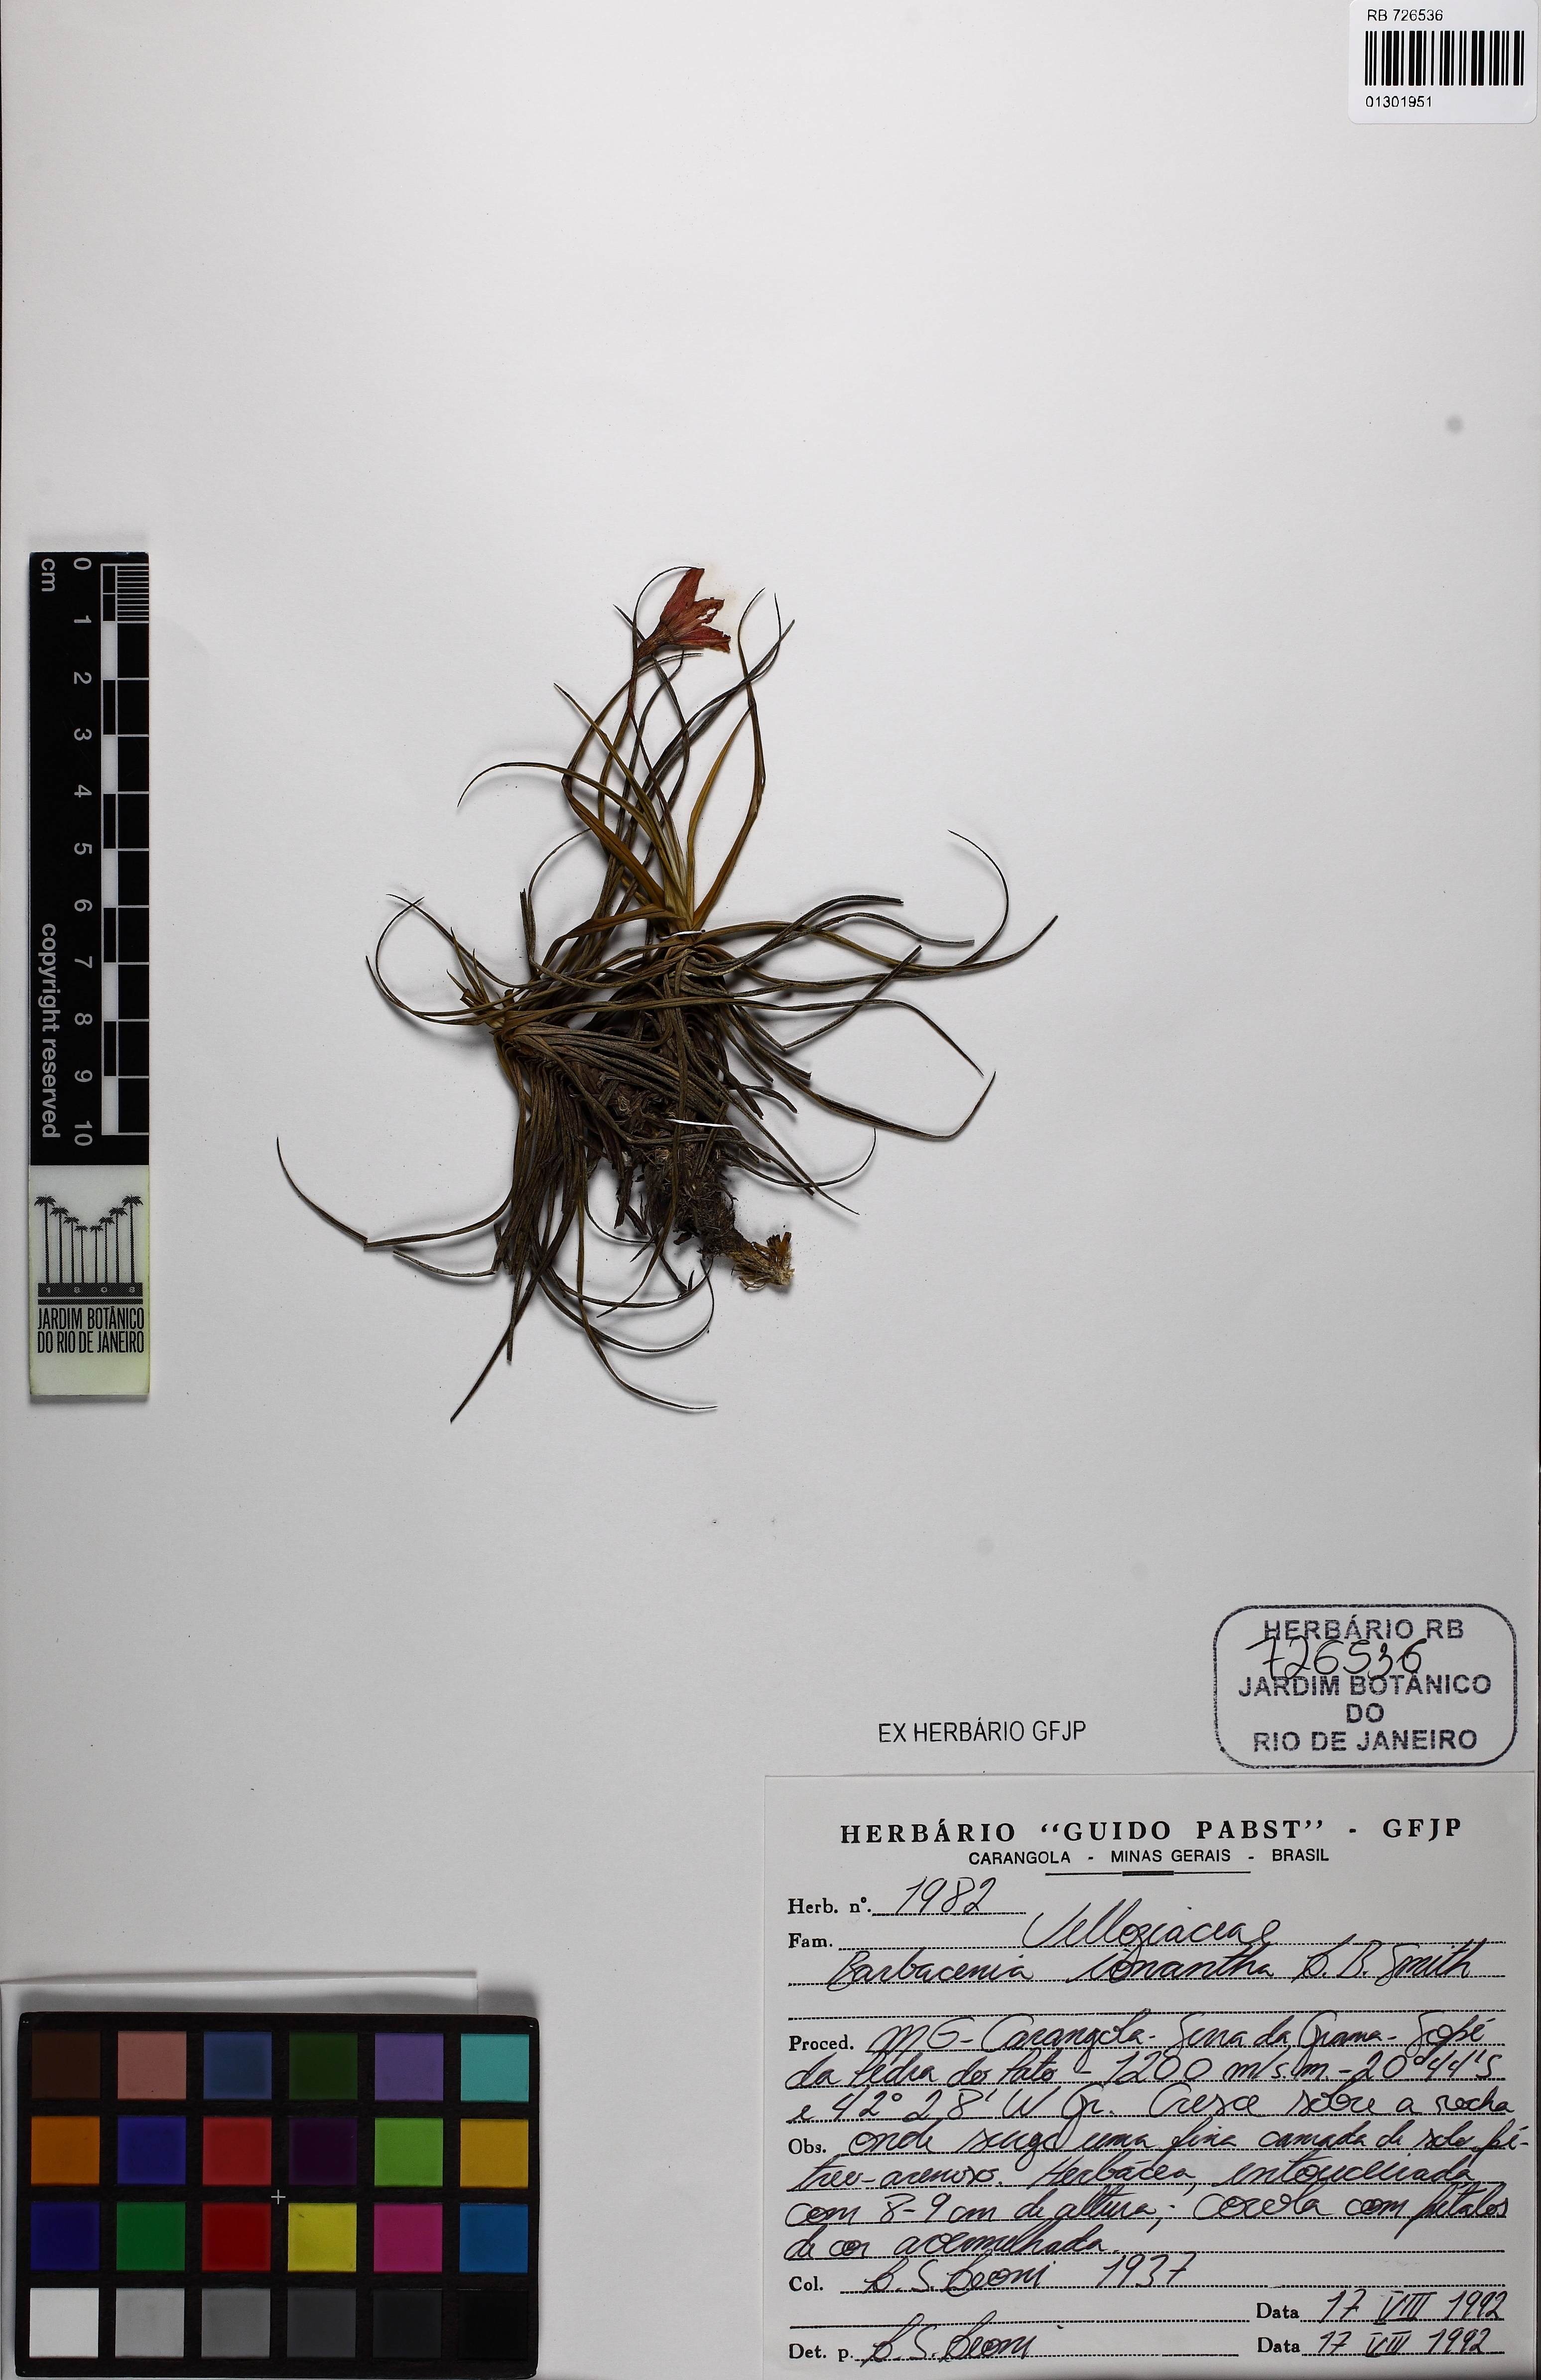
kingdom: Plantae
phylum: Tracheophyta
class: Liliopsida
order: Pandanales
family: Velloziaceae
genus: Barbacenia
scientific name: Barbacenia ionantha
